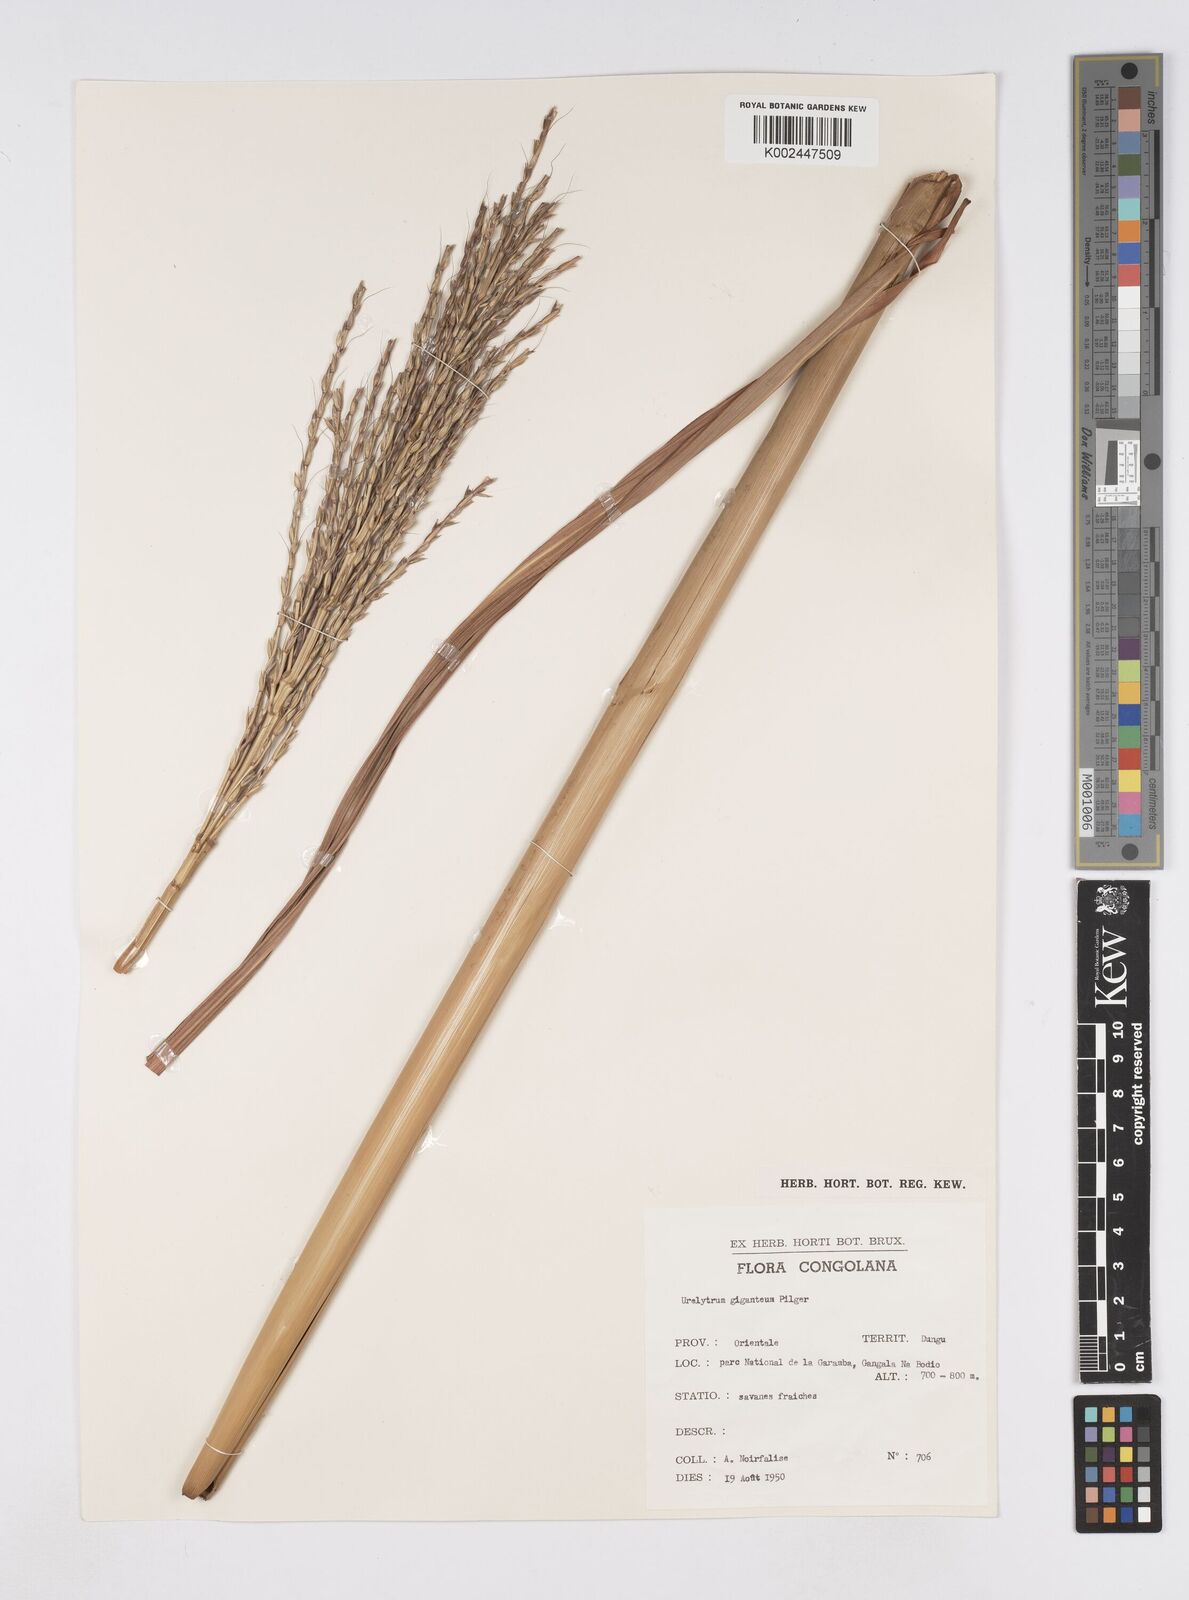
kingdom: Plantae
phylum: Tracheophyta
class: Liliopsida
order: Poales
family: Poaceae
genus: Urelytrum
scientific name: Urelytrum giganteum
